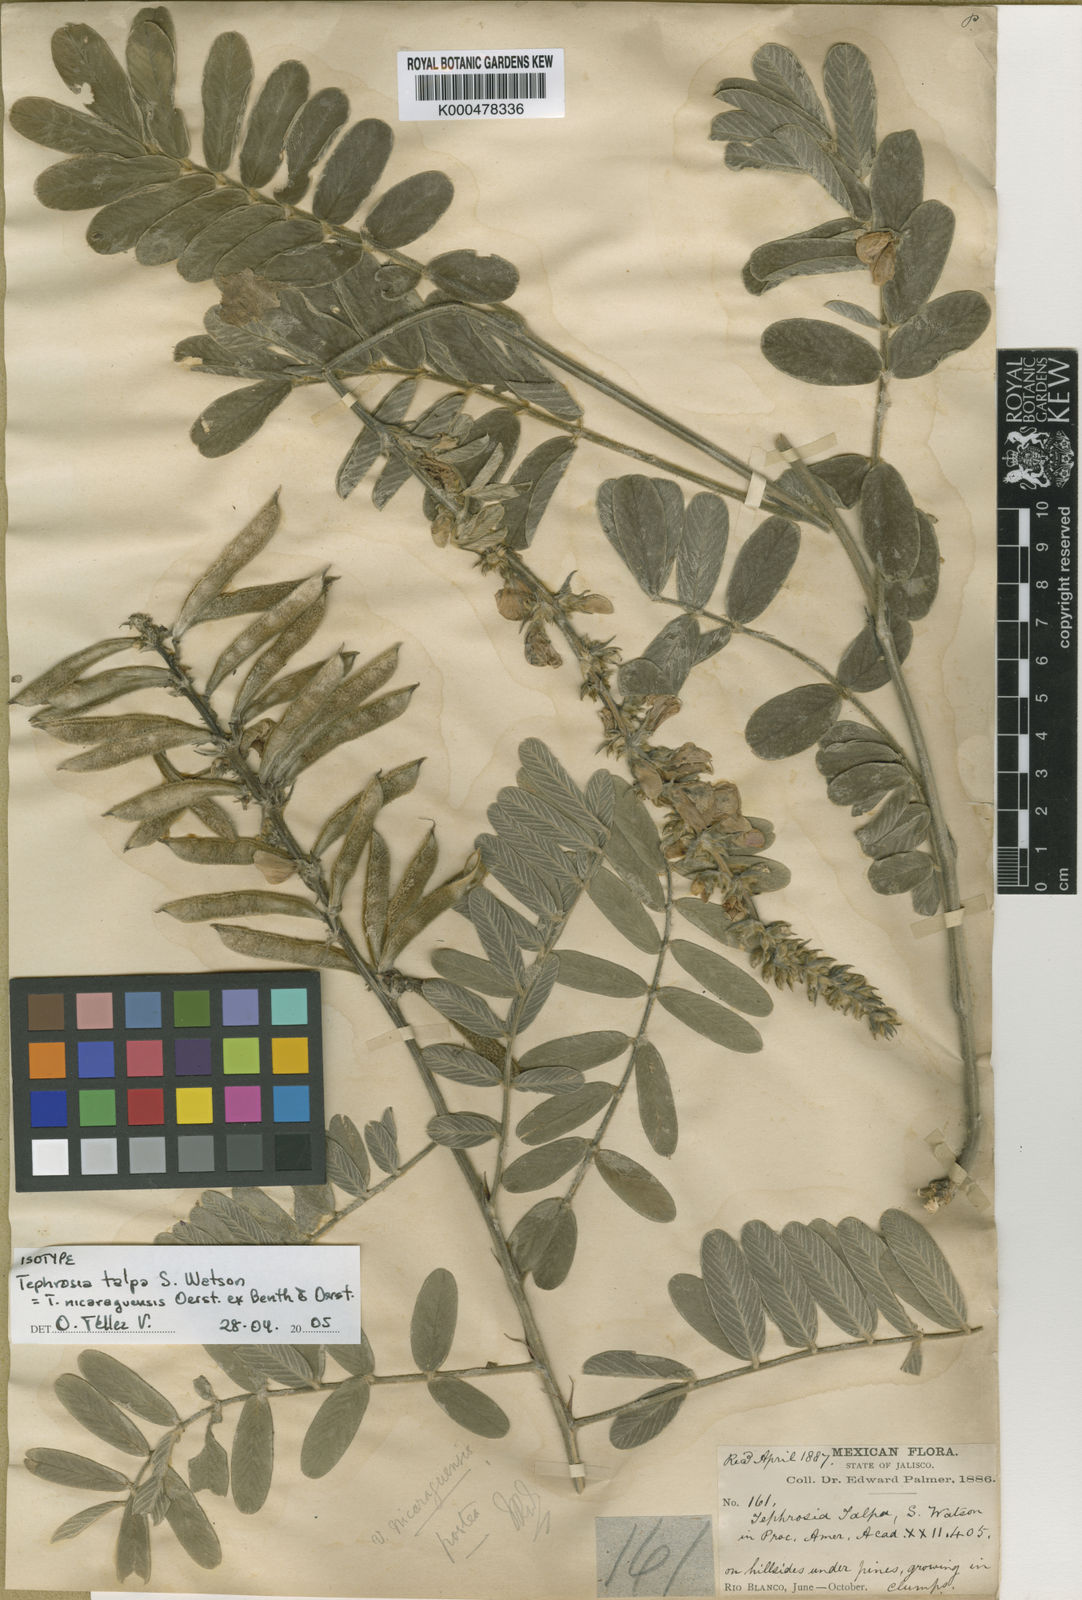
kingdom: Plantae
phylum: Tracheophyta
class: Magnoliopsida
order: Fabales
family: Fabaceae
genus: Tephrosia
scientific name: Tephrosia nicaraguensis
